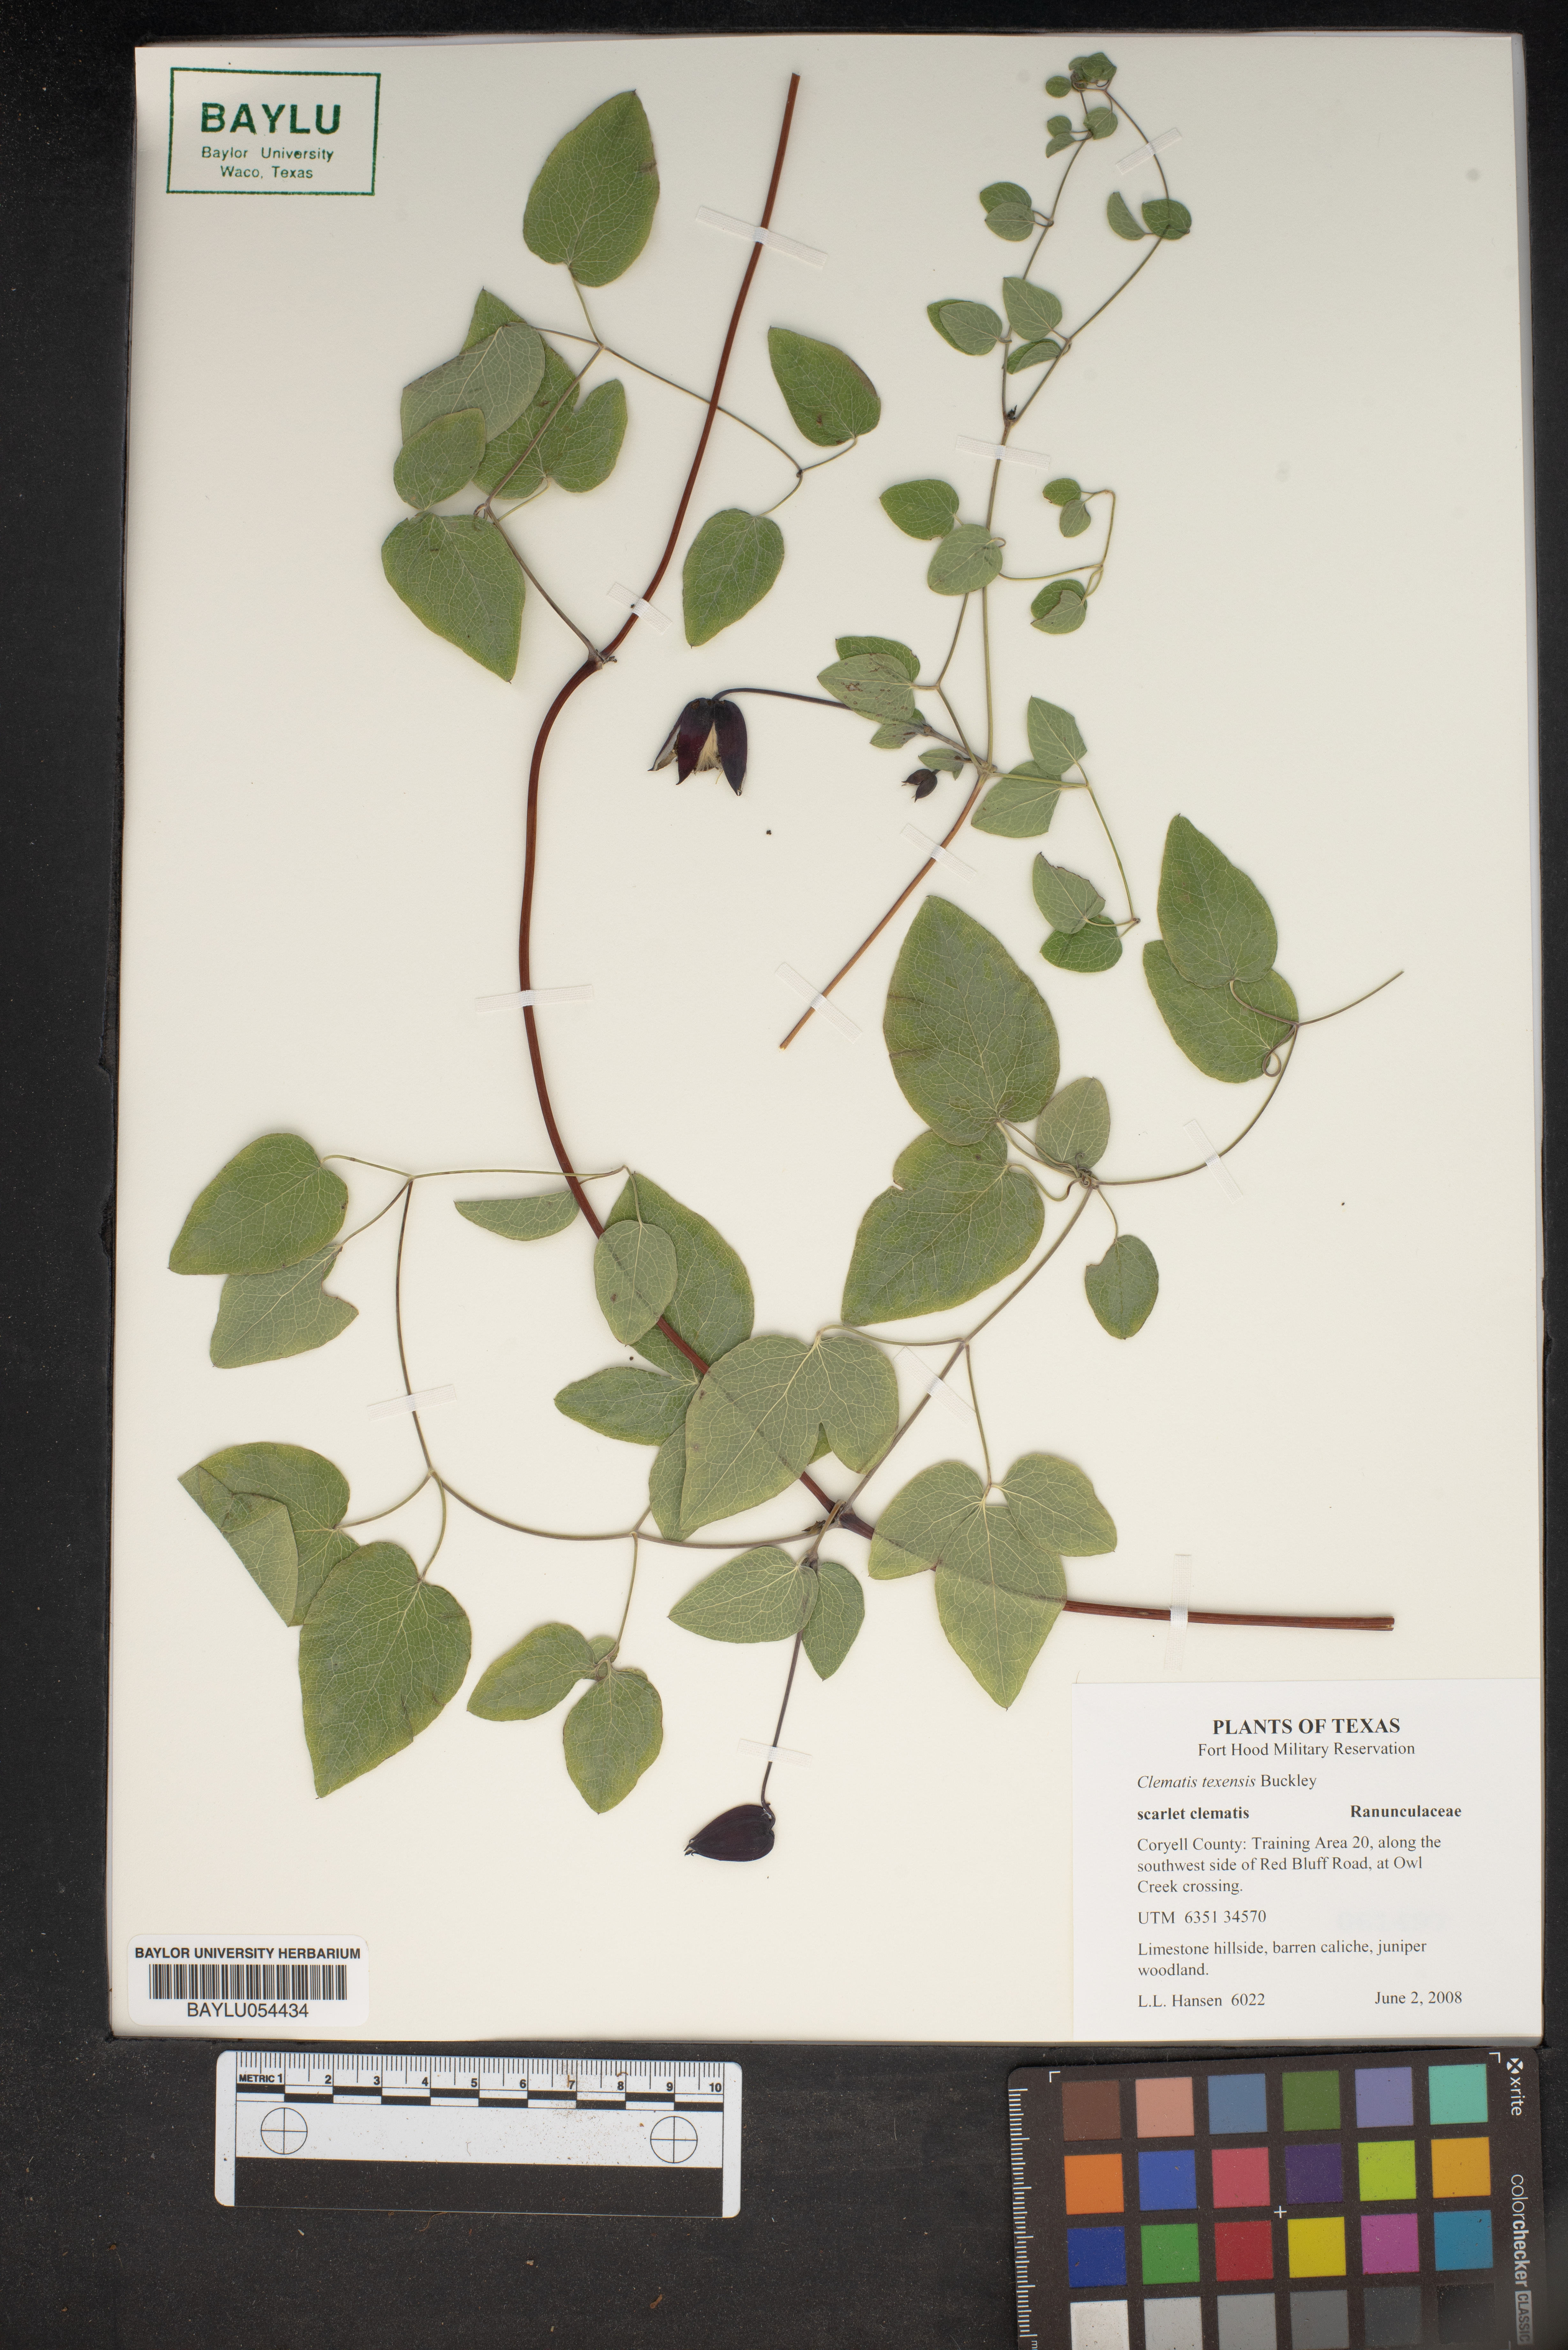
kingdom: Plantae
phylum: Tracheophyta
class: Magnoliopsida
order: Ranunculales
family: Ranunculaceae
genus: Clematis
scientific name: Clematis texensis
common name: Crimson clematis
